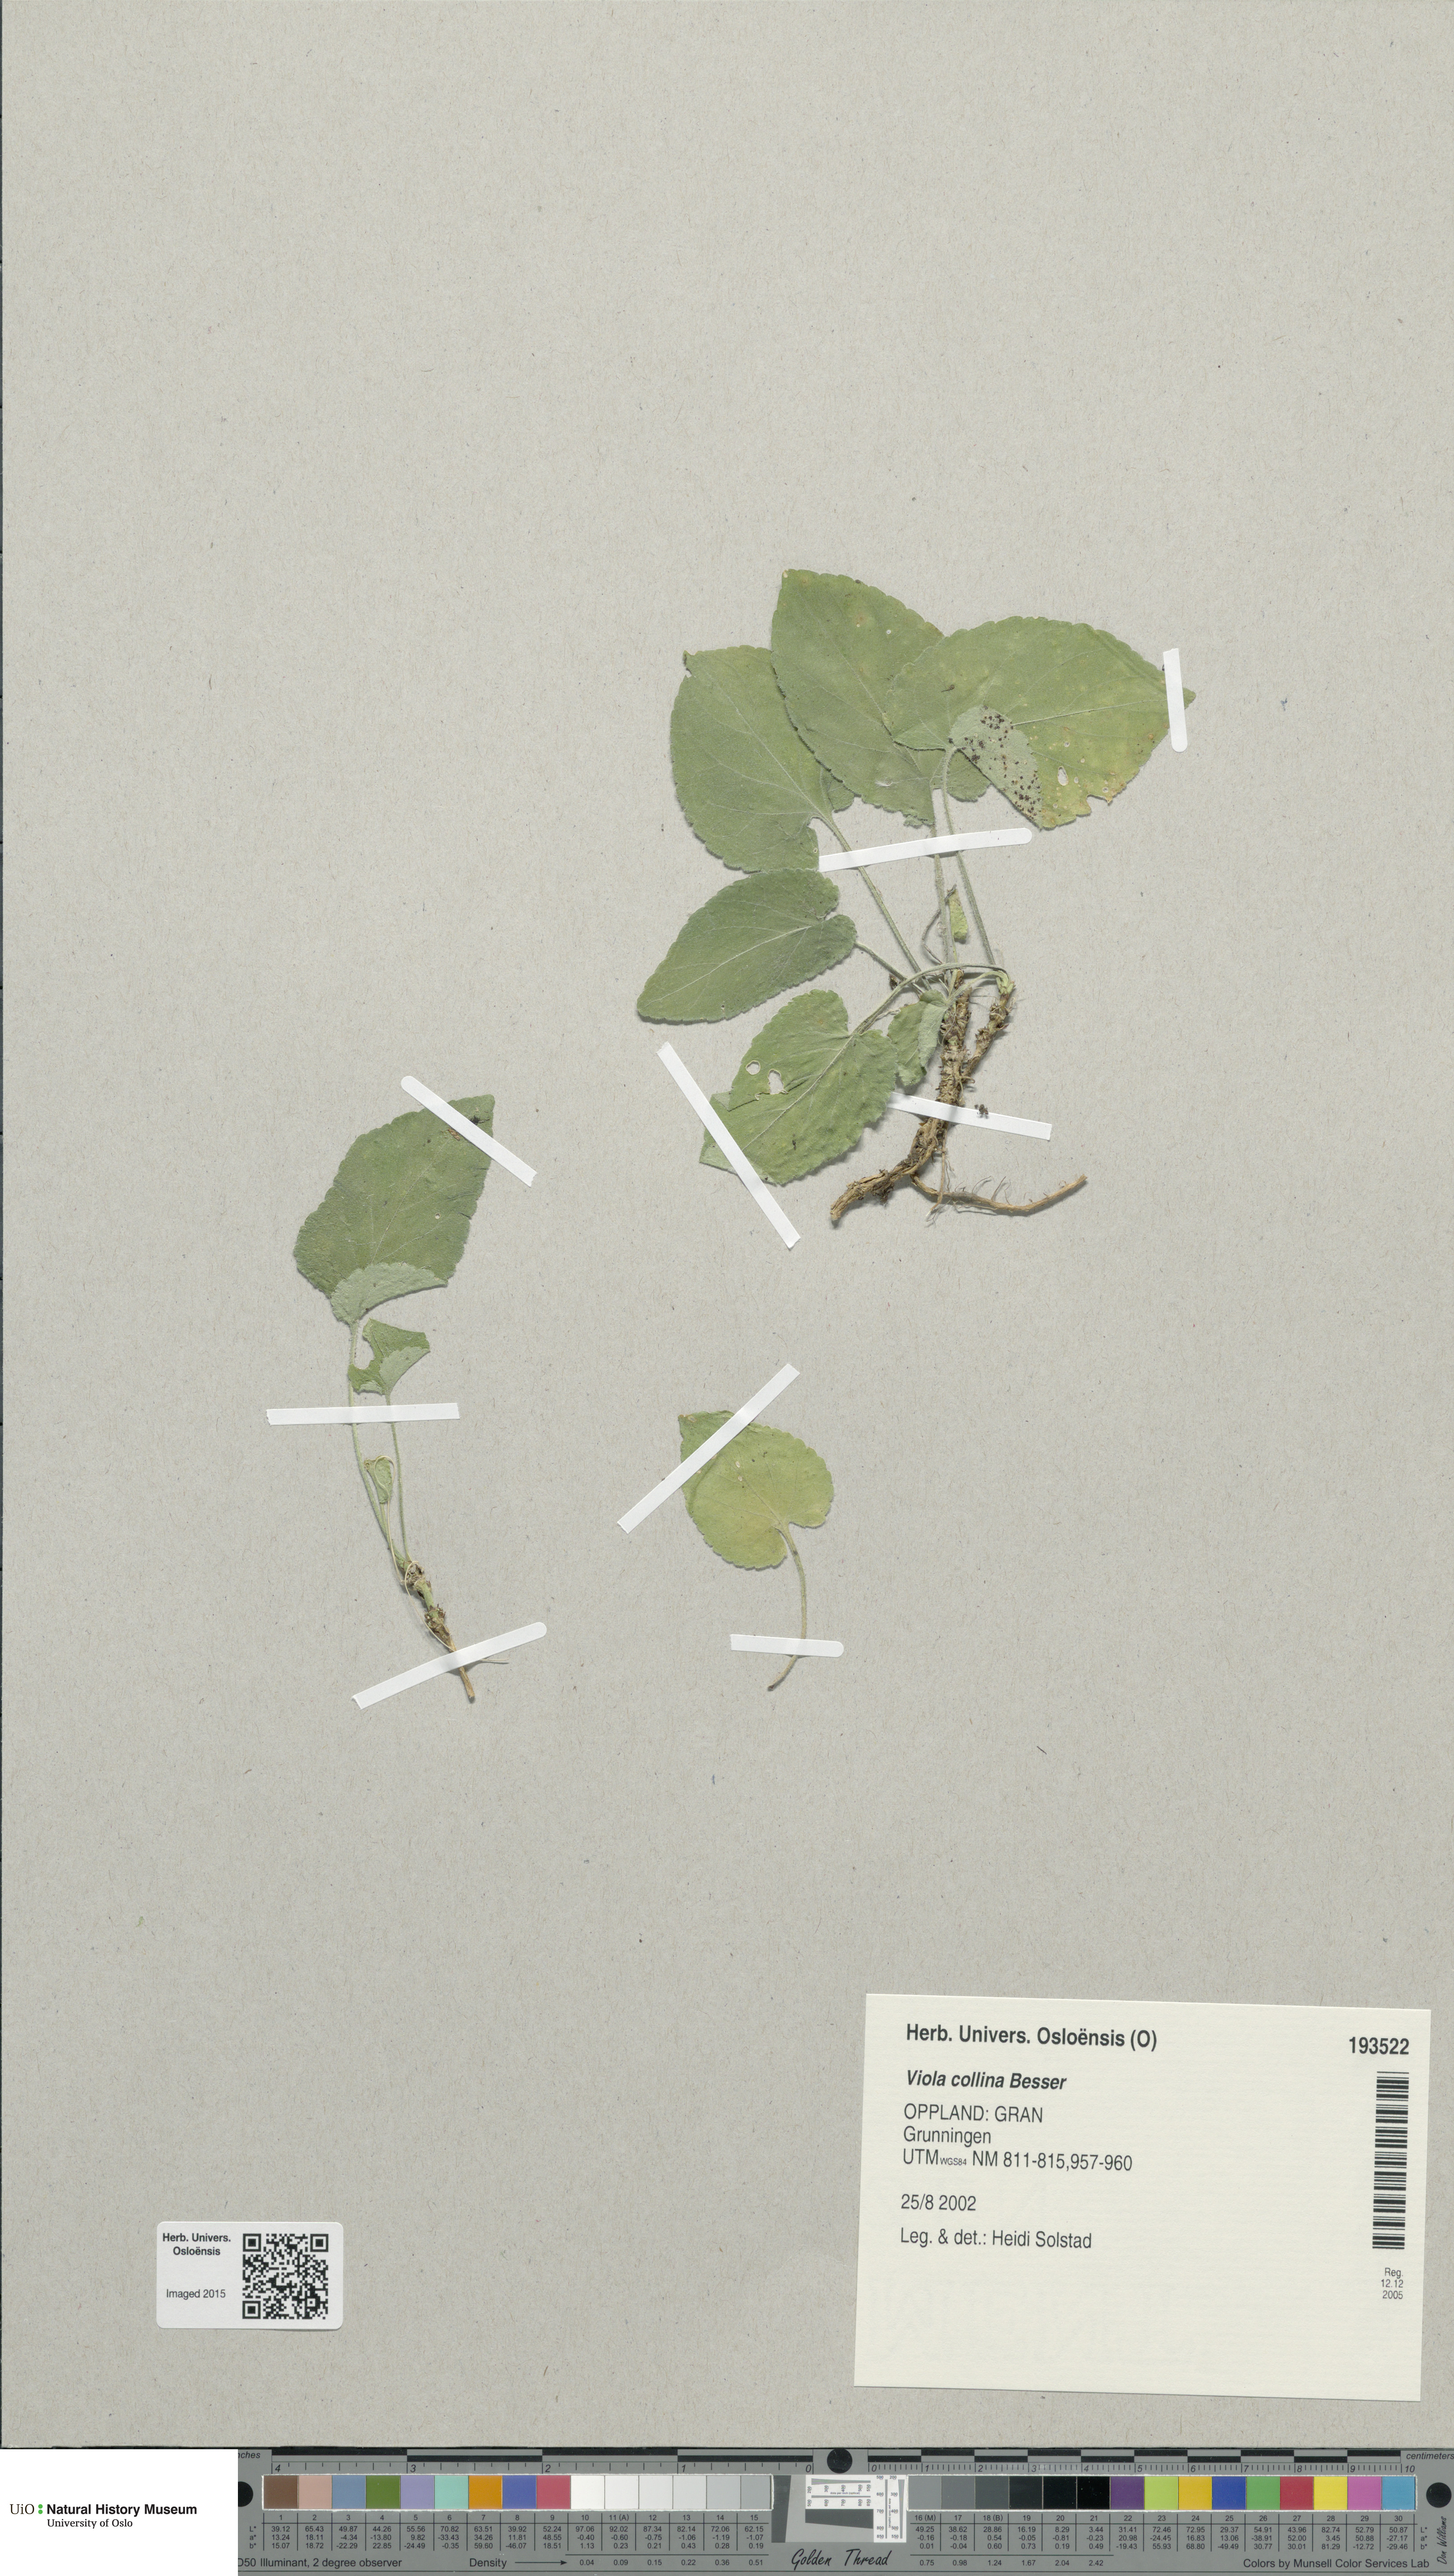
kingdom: Plantae
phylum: Tracheophyta
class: Magnoliopsida
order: Malpighiales
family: Violaceae
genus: Viola
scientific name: Viola collina
